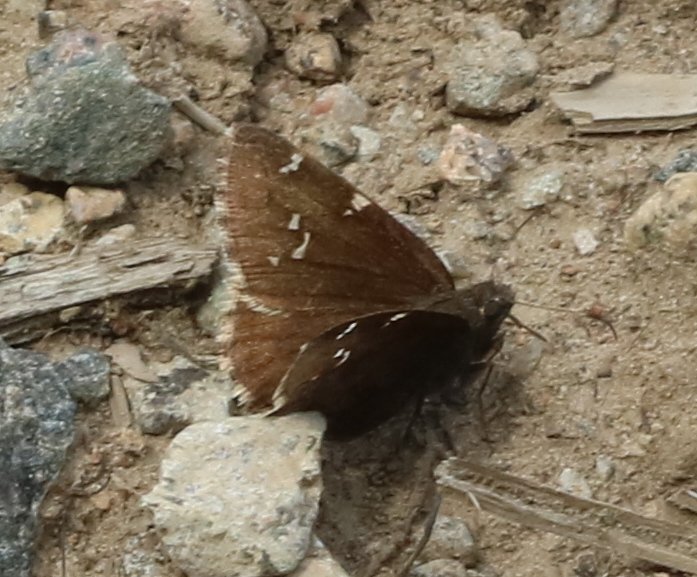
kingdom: Animalia
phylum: Arthropoda
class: Insecta
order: Lepidoptera
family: Hesperiidae
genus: Autochton
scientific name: Autochton
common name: Northern Cloudywing
